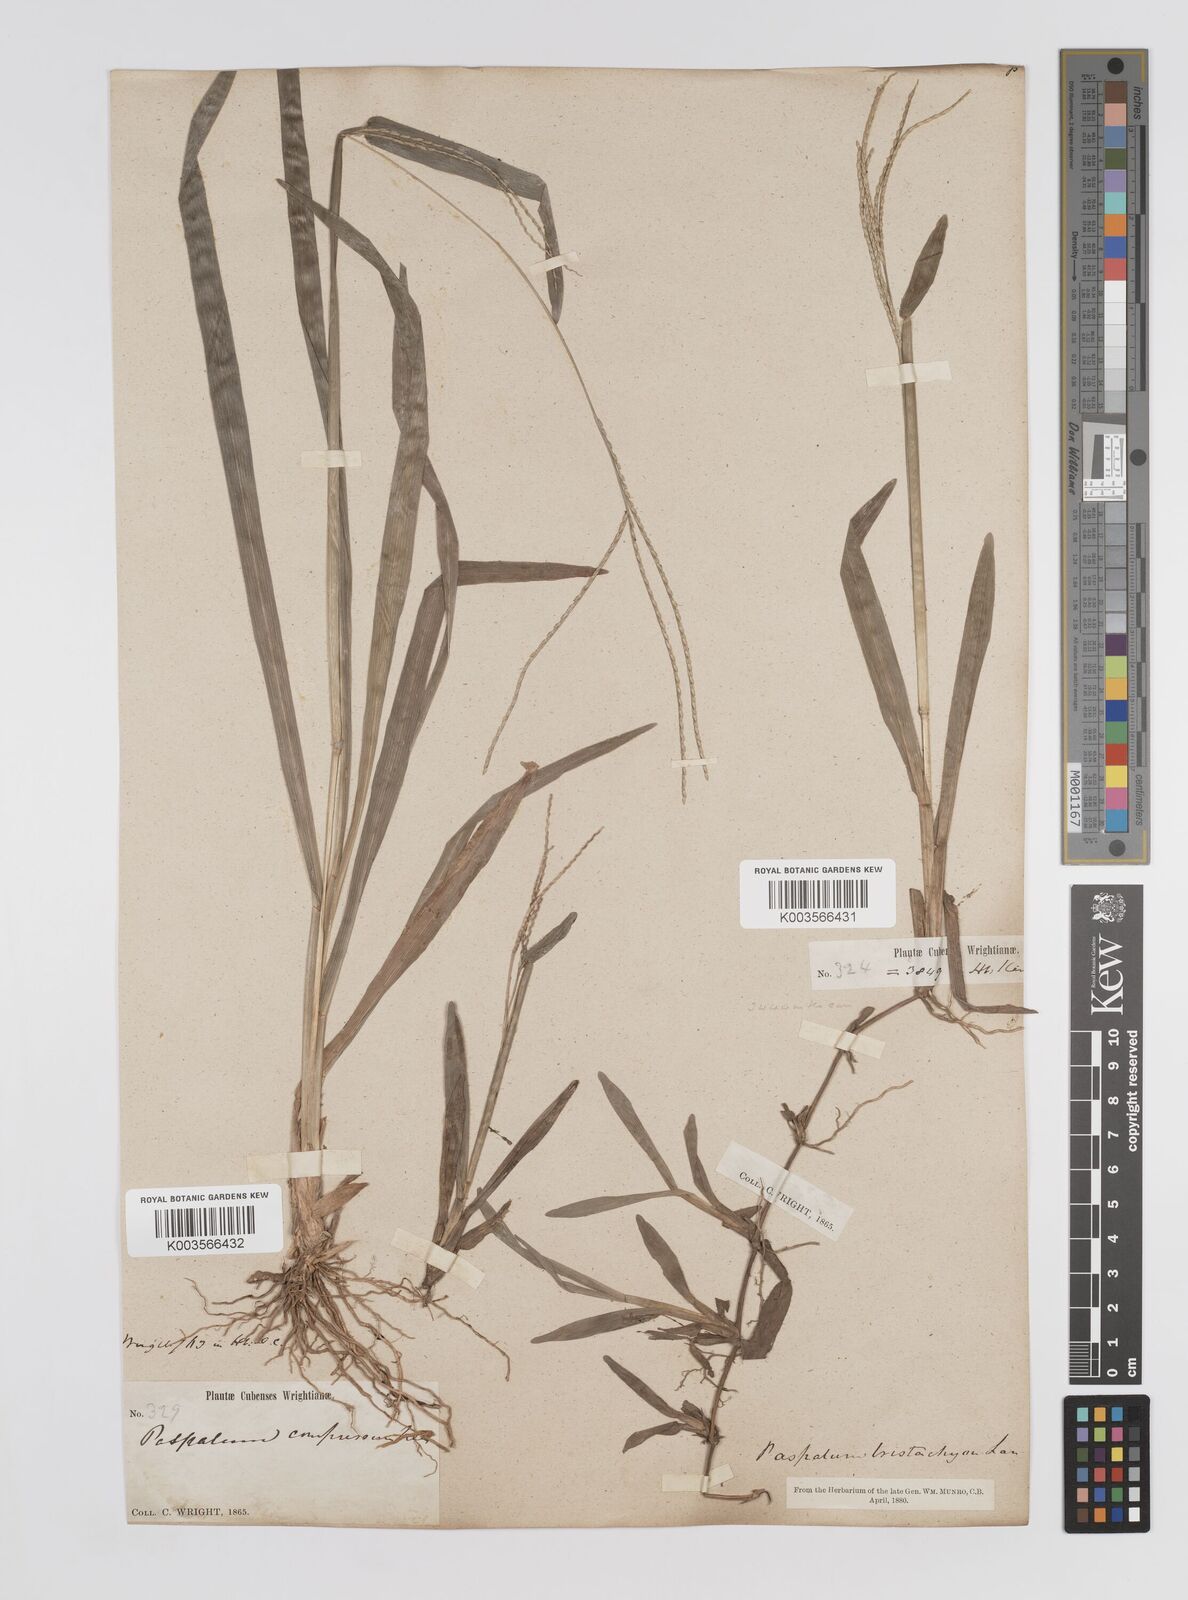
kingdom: Plantae
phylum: Tracheophyta
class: Liliopsida
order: Poales
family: Poaceae
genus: Axonopus
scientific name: Axonopus compressus
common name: American carpet grass
